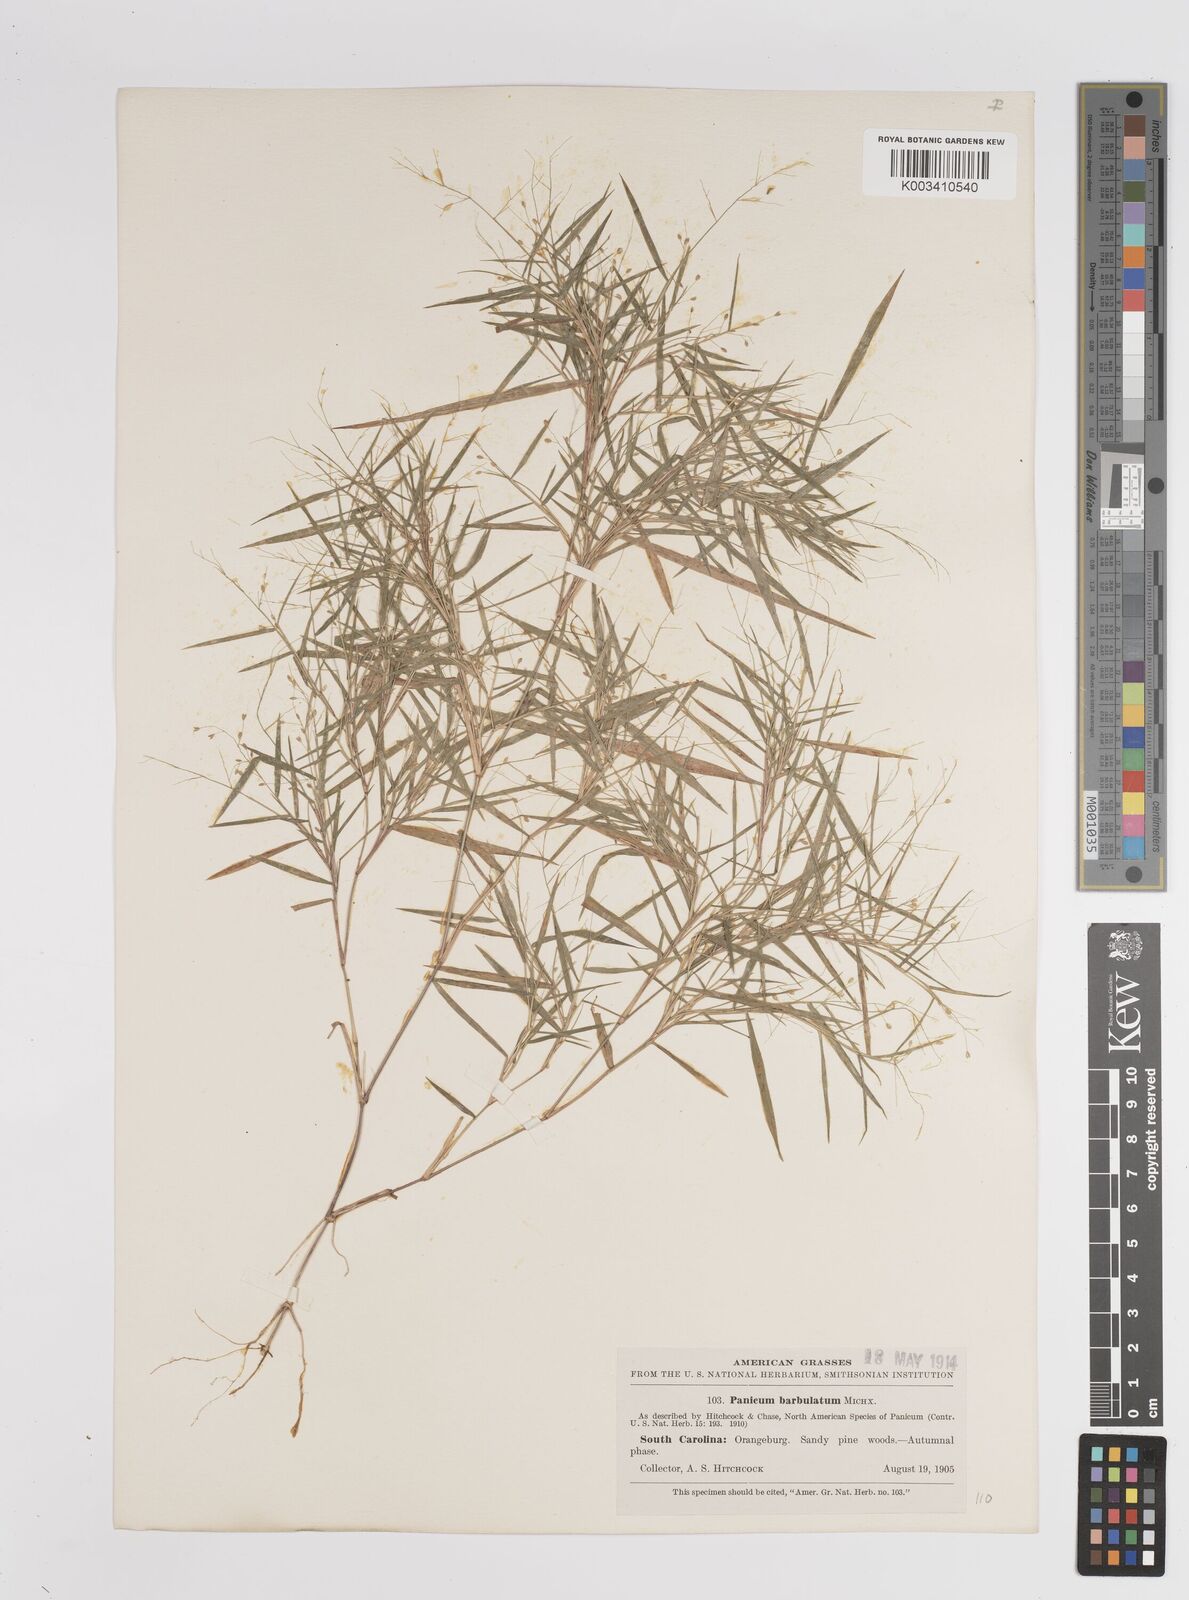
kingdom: Plantae
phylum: Tracheophyta
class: Liliopsida
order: Poales
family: Poaceae
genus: Dichanthelium
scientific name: Dichanthelium dichotomum
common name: Cypress panicgrass
